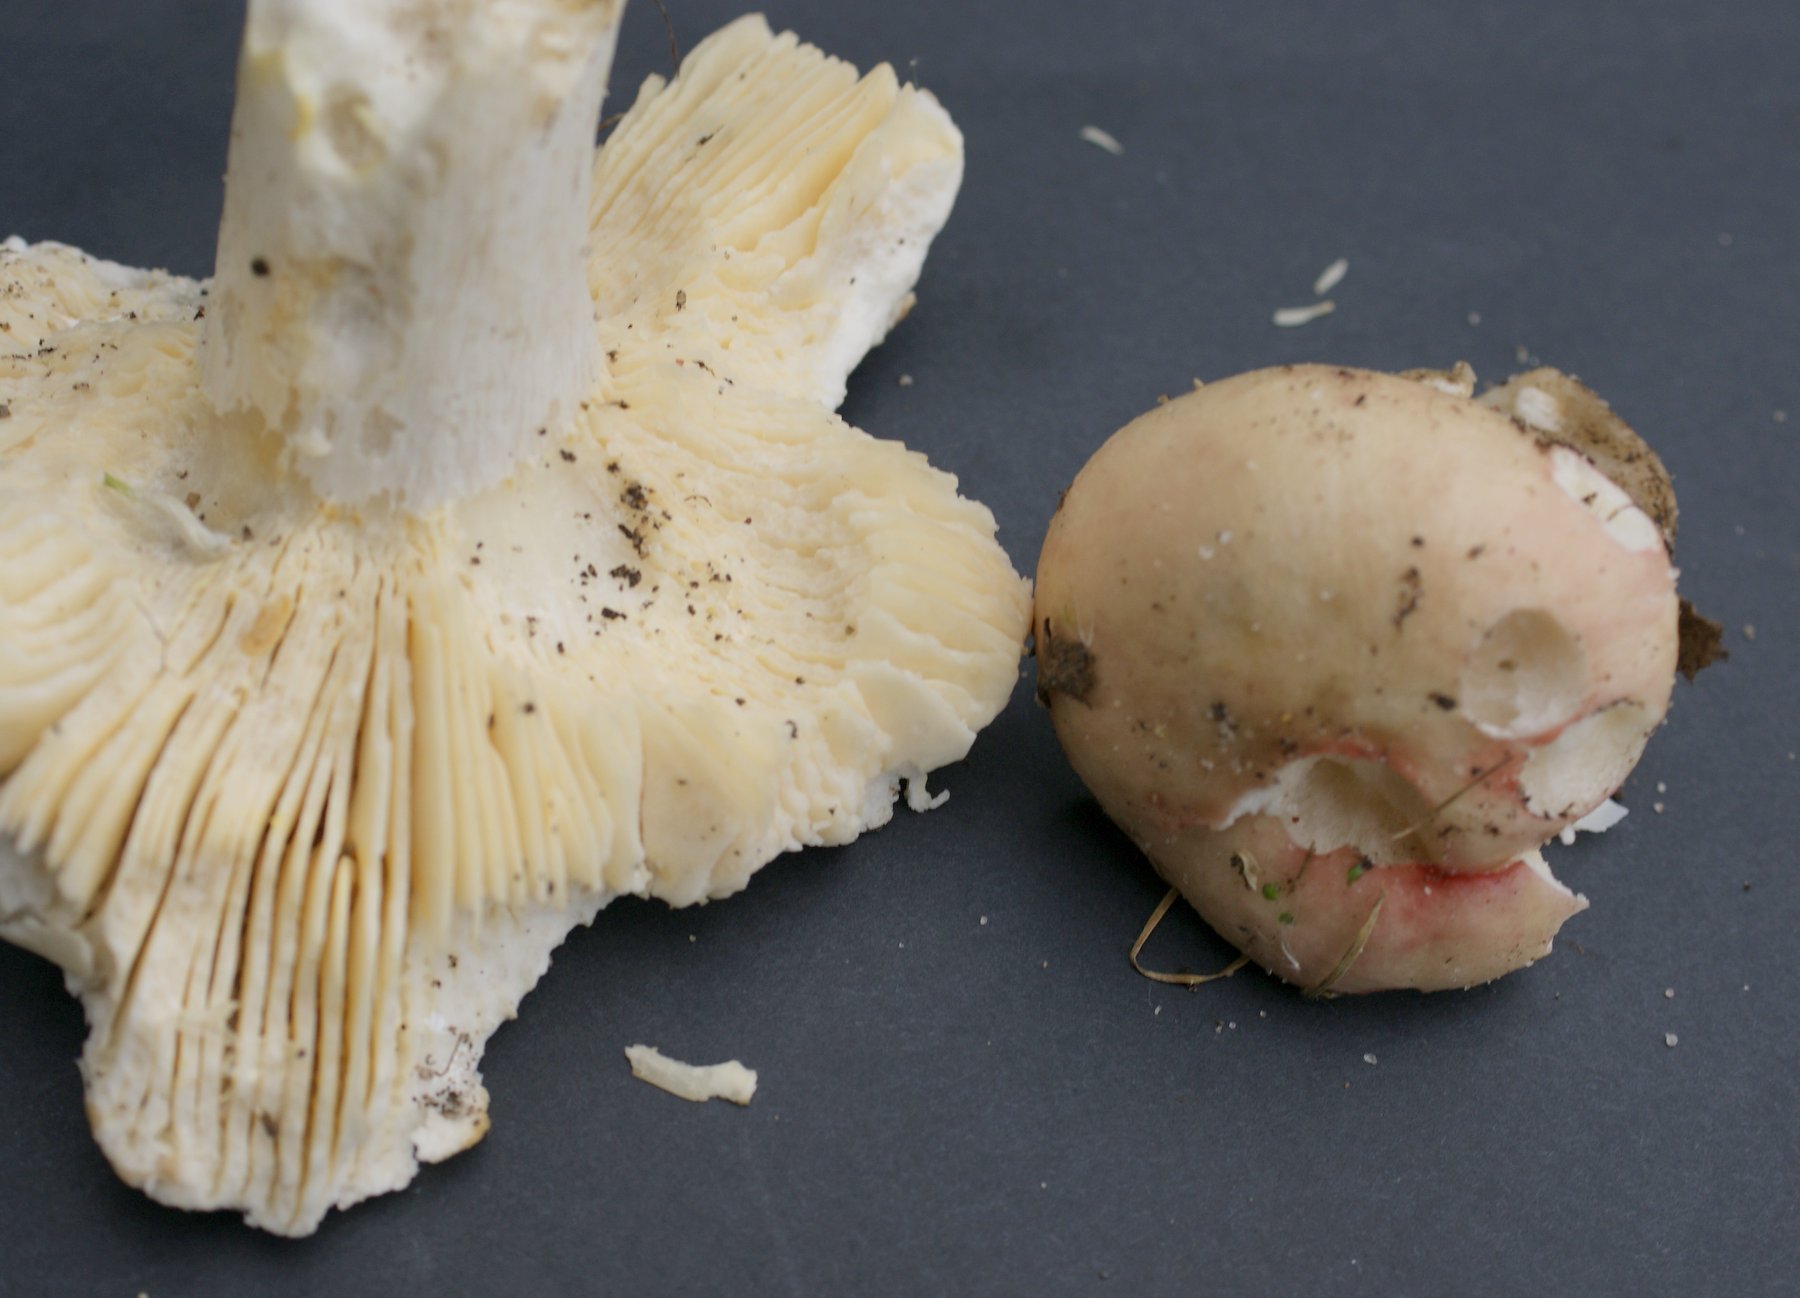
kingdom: Fungi
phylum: Basidiomycota
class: Agaricomycetes
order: Russulales
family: Russulaceae
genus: Russula
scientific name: Russula depallens
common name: falmende skørhat
